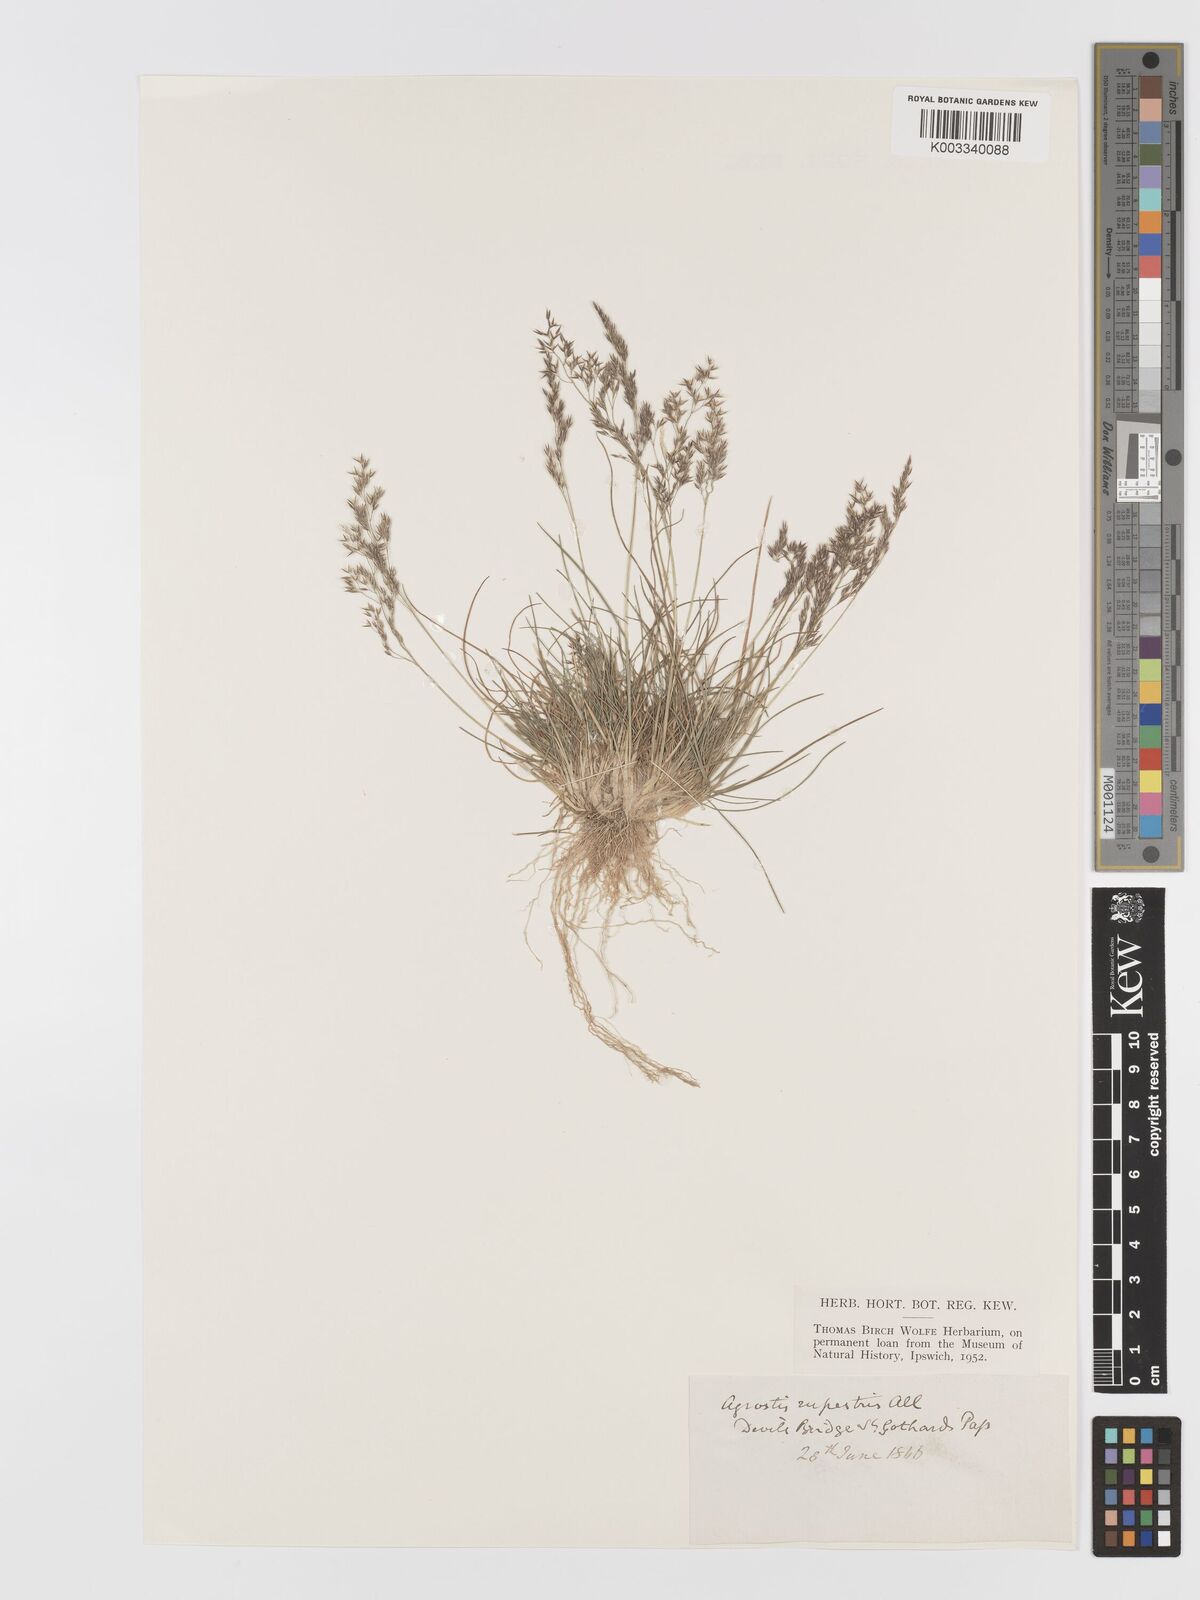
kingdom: Plantae
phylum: Tracheophyta
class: Liliopsida
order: Poales
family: Poaceae
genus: Agrostis
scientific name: Agrostis rupestris
